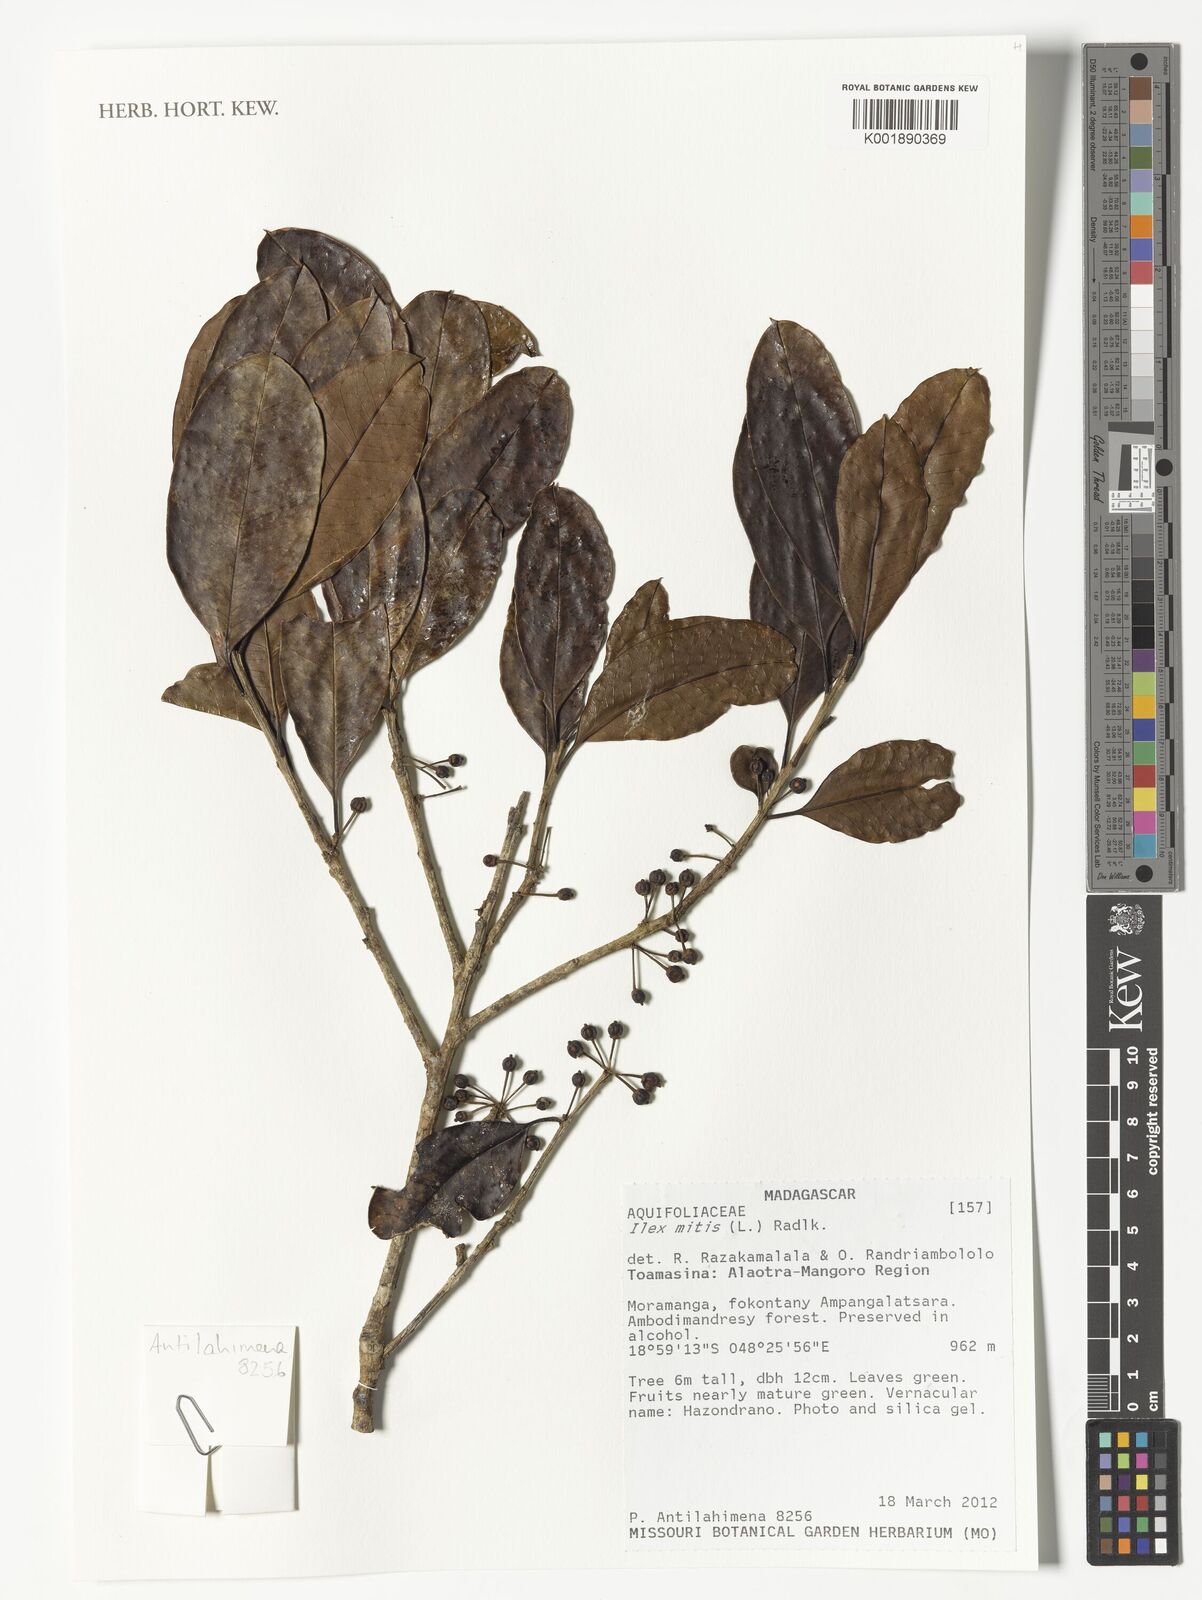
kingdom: Plantae
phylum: Tracheophyta
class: Magnoliopsida
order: Aquifoliales
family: Aquifoliaceae
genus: Ilex
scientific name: Ilex mitis
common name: African holly
